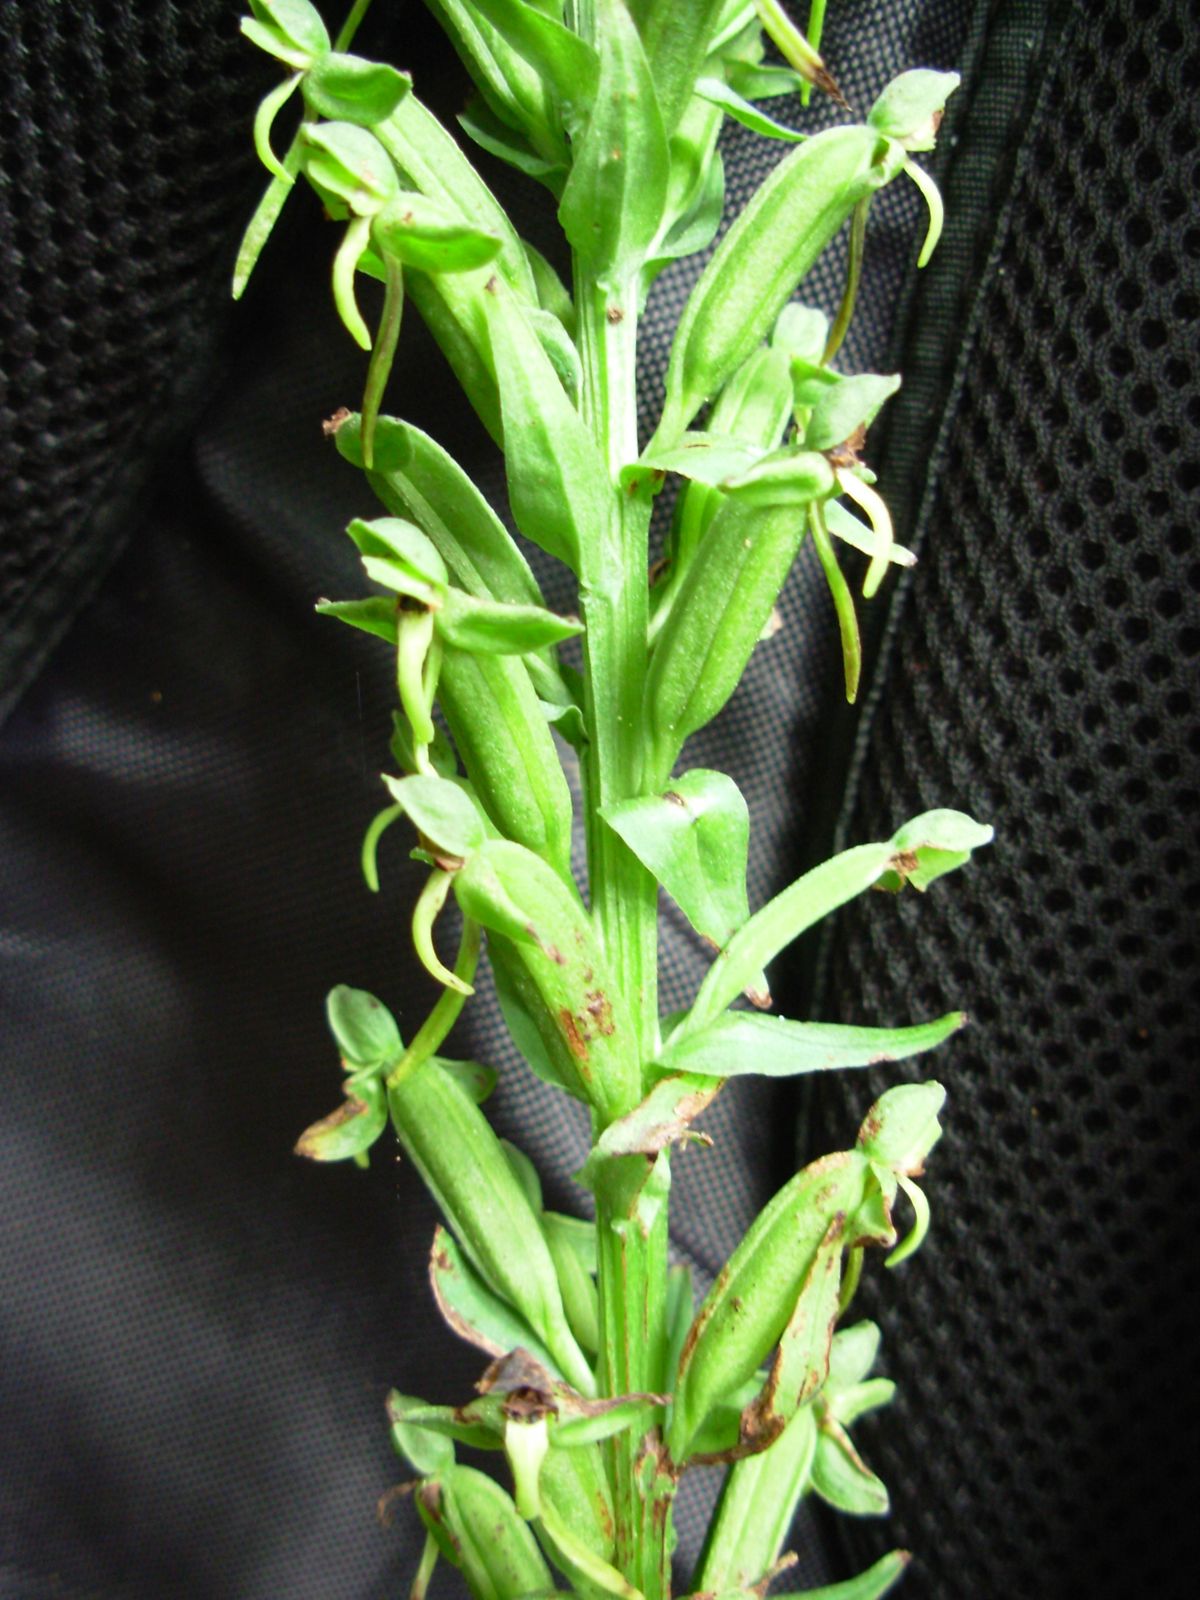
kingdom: Plantae
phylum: Tracheophyta
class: Liliopsida
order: Asparagales
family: Orchidaceae
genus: Habenaria
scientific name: Habenaria quinqueseta
